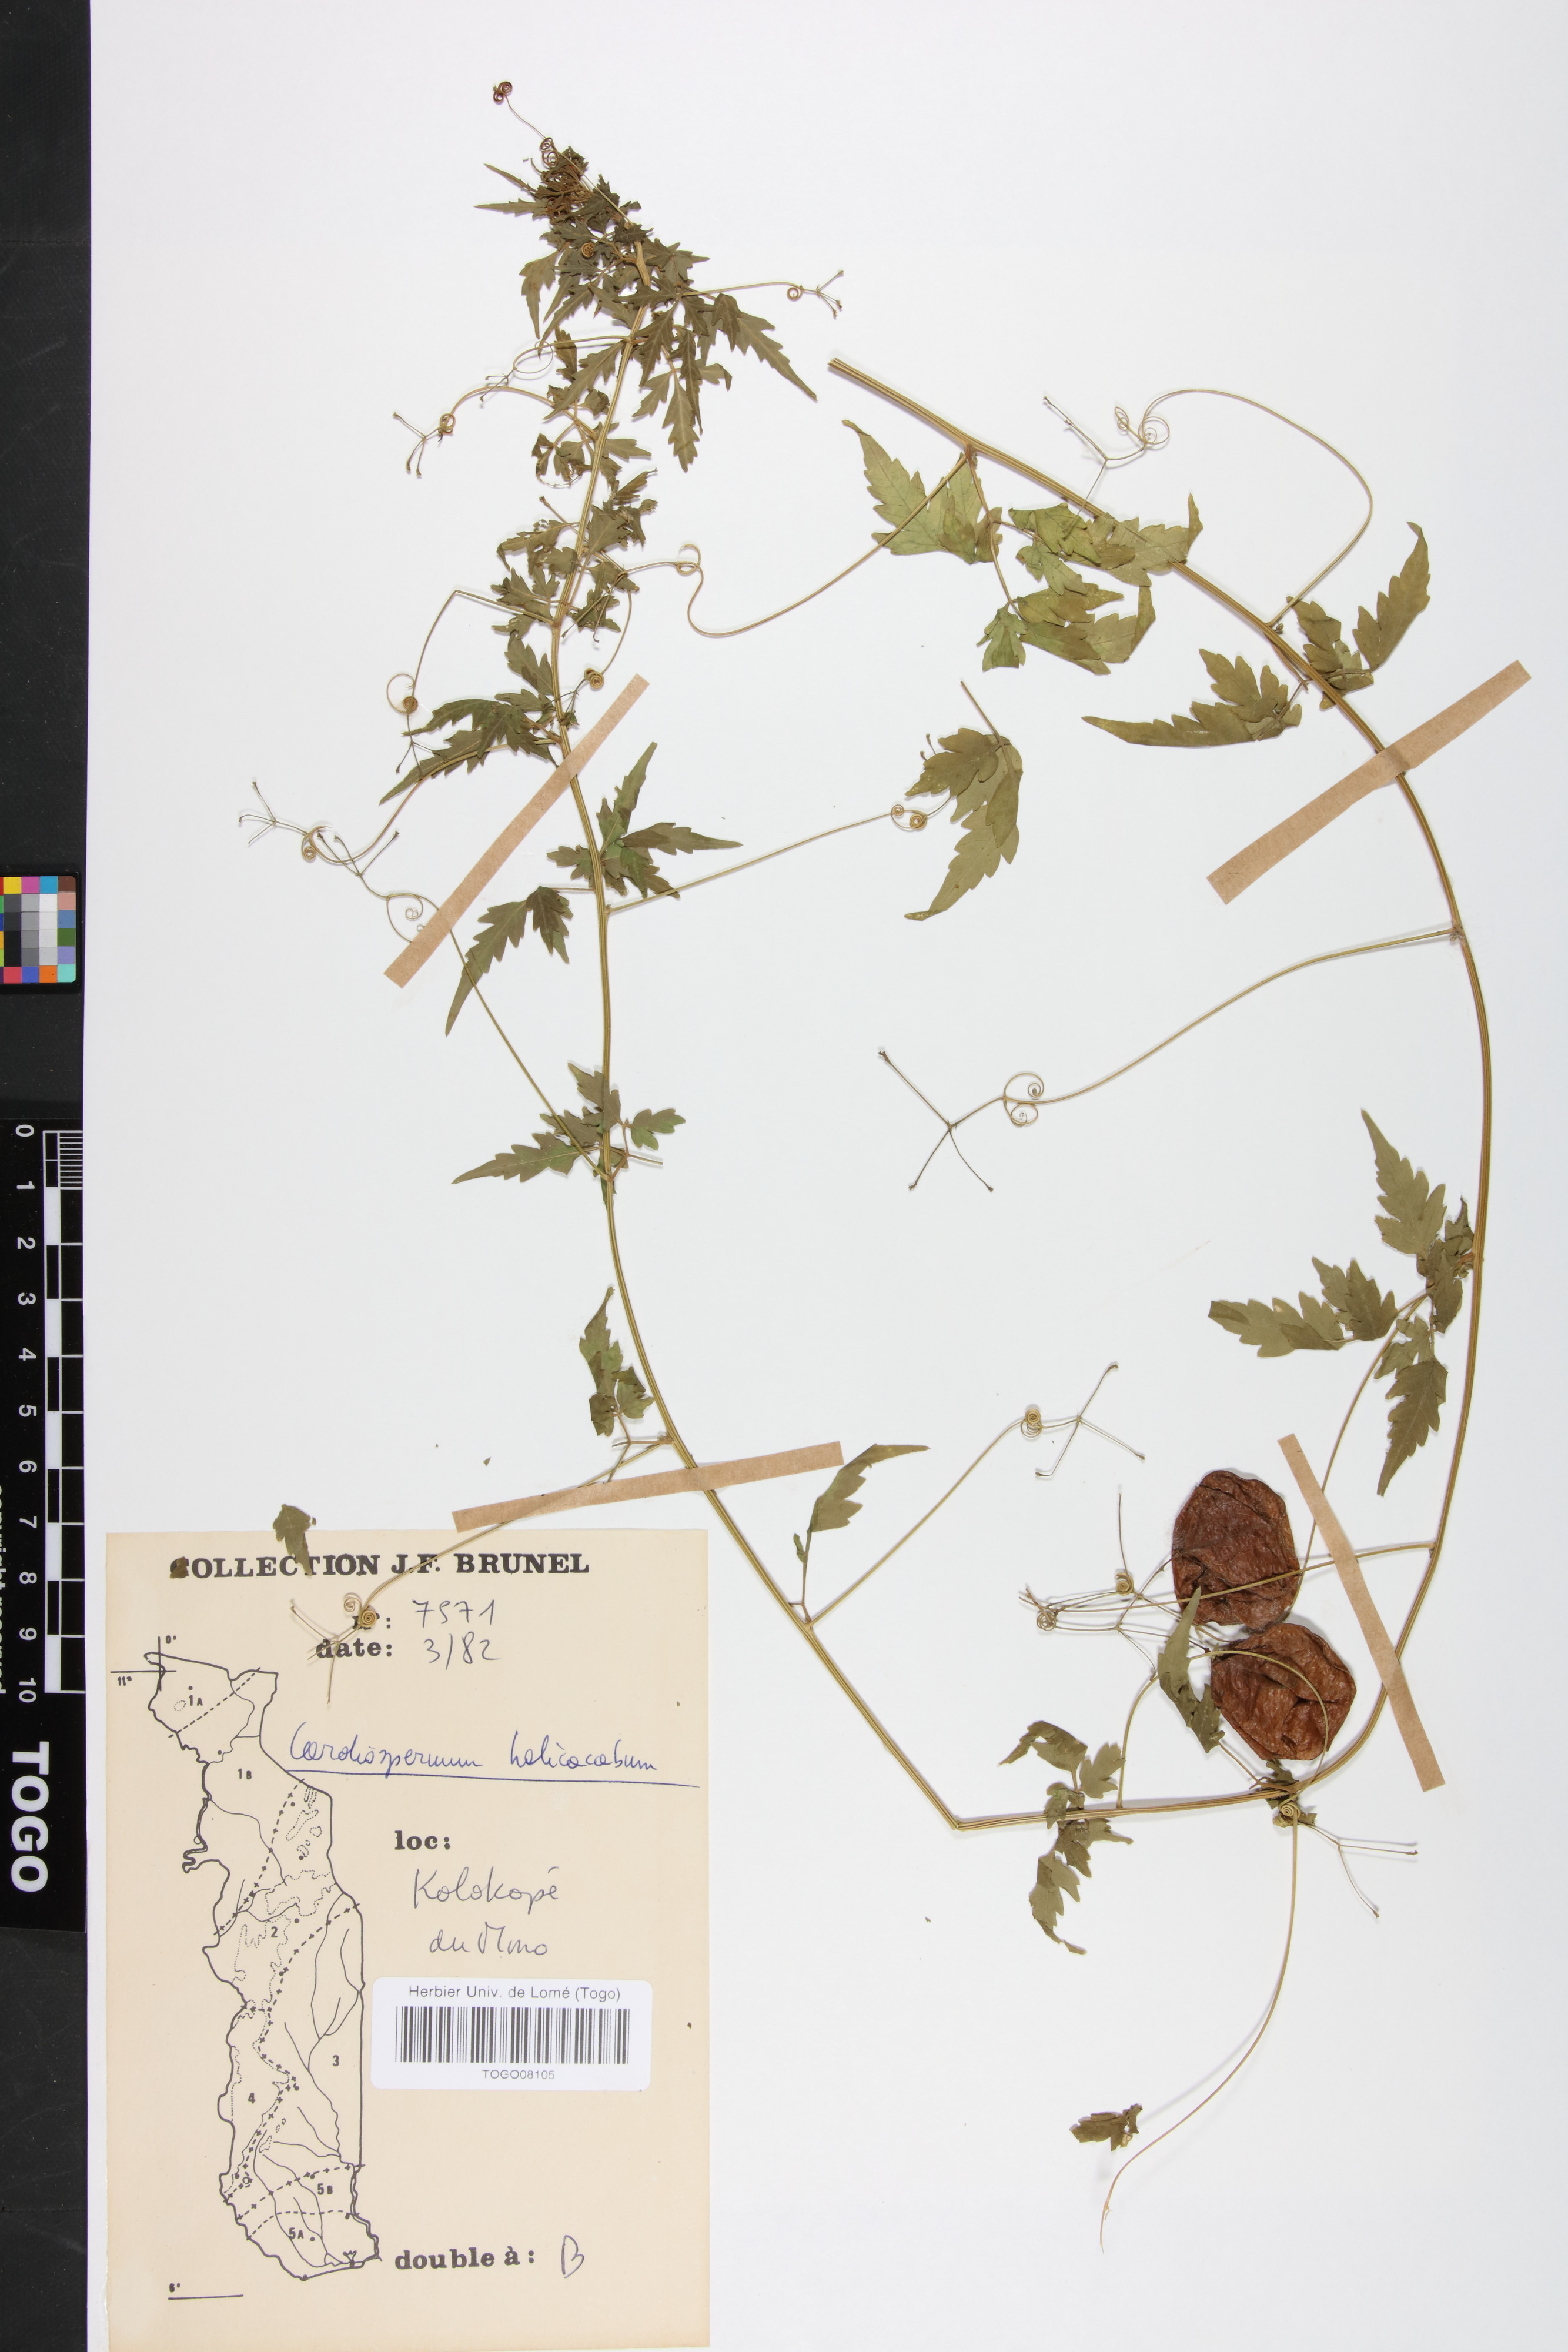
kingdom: Plantae
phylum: Tracheophyta
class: Magnoliopsida
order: Sapindales
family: Sapindaceae
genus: Cardiospermum
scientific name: Cardiospermum halicacabum
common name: Balloon vine
